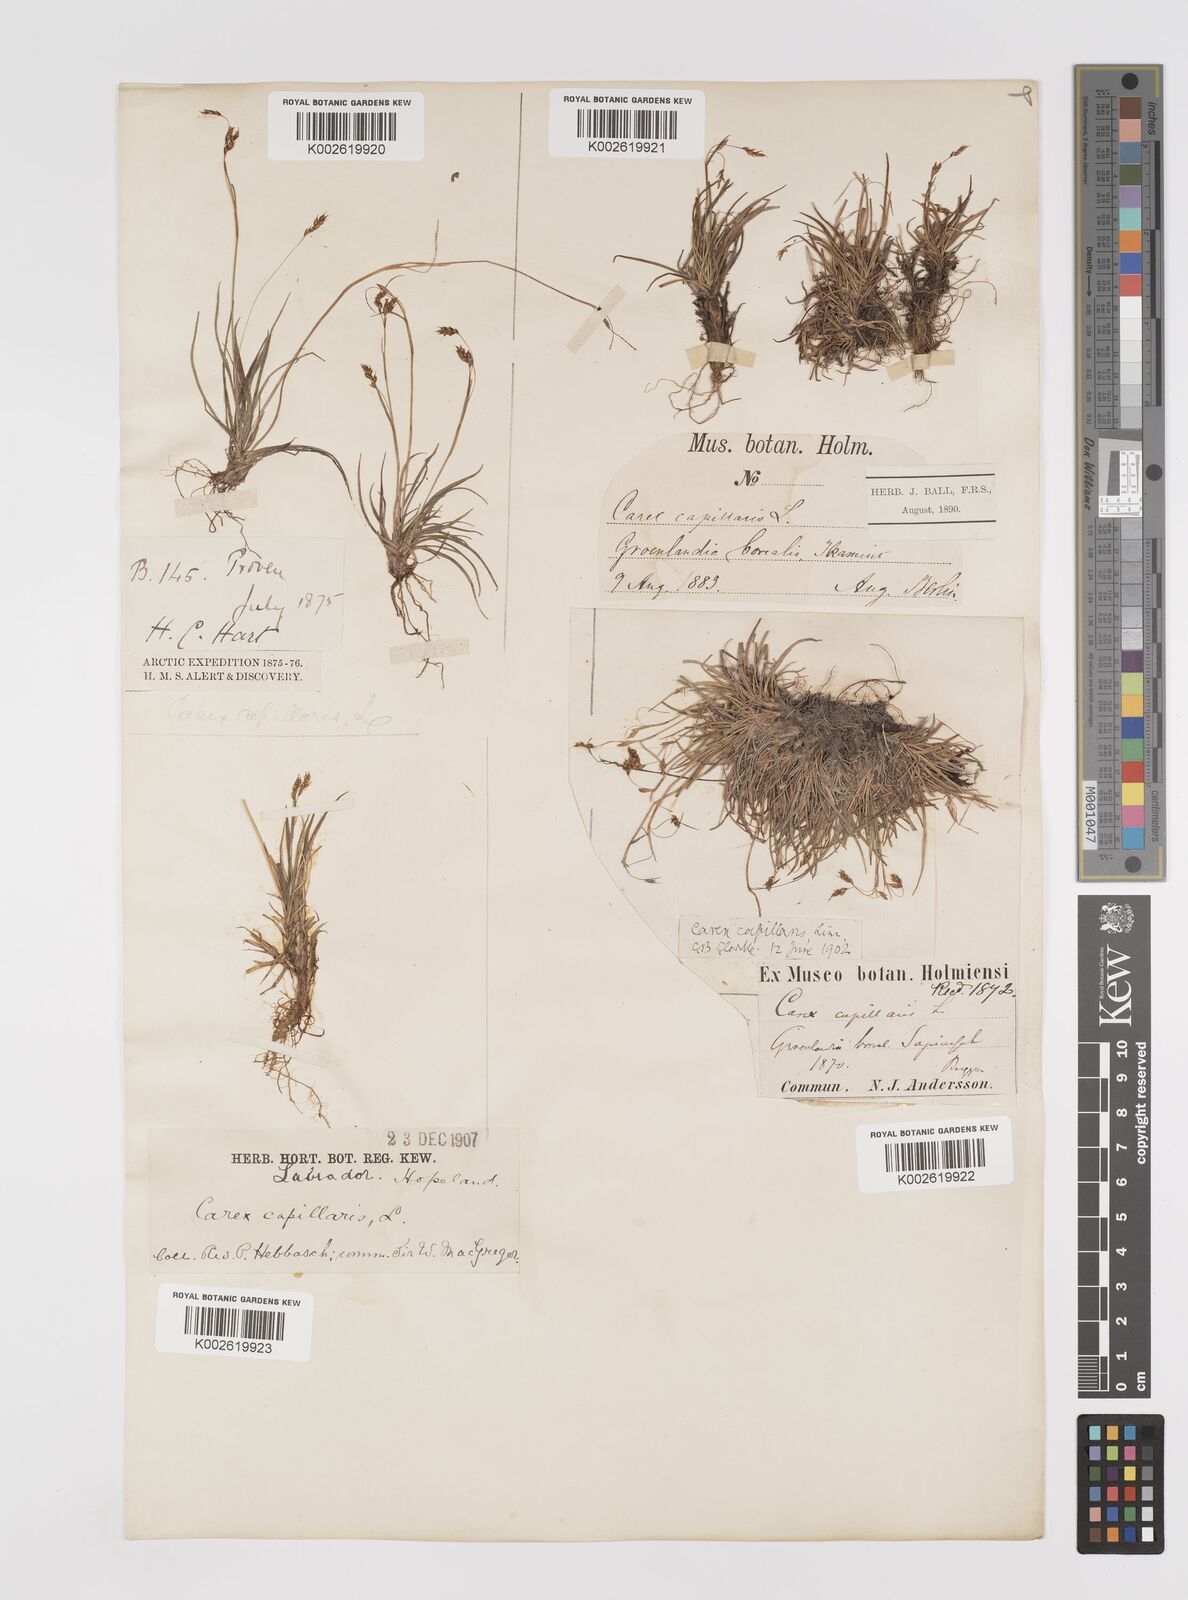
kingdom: Plantae
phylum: Tracheophyta
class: Liliopsida
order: Poales
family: Cyperaceae
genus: Carex
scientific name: Carex capillaris
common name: Hair sedge
